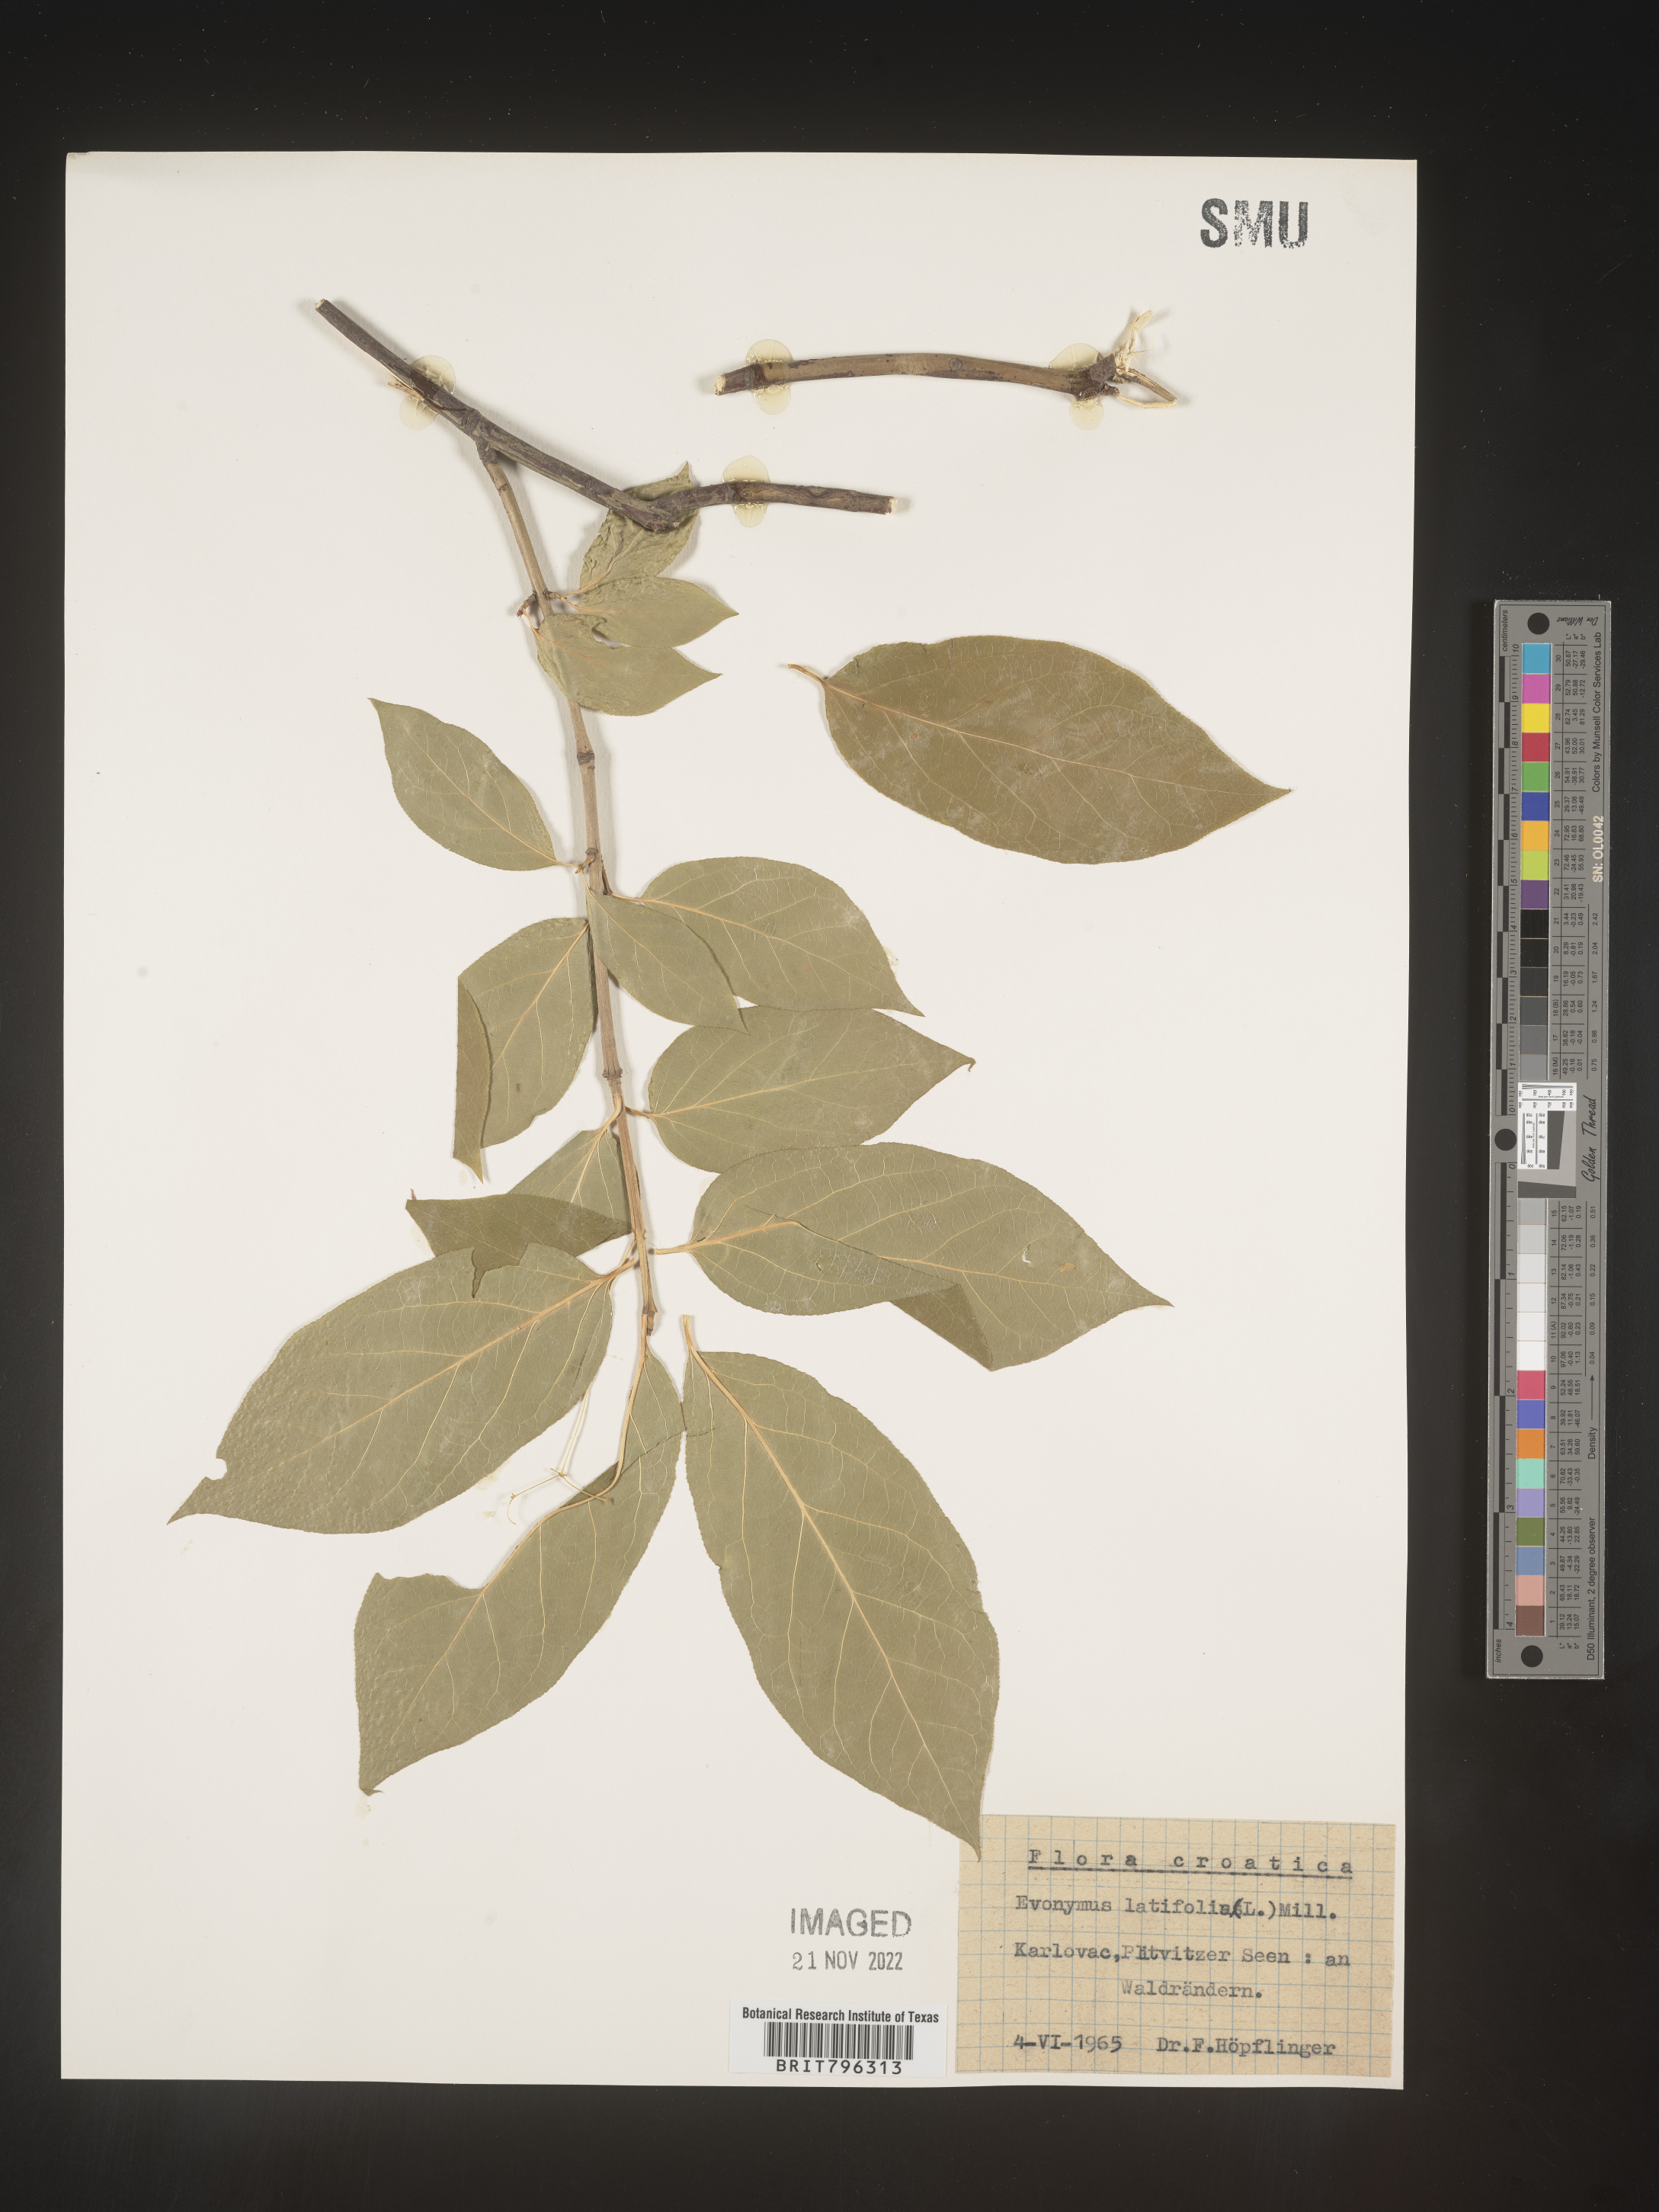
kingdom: Plantae
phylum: Tracheophyta
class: Magnoliopsida
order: Celastrales
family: Celastraceae
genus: Euonymus
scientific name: Euonymus
